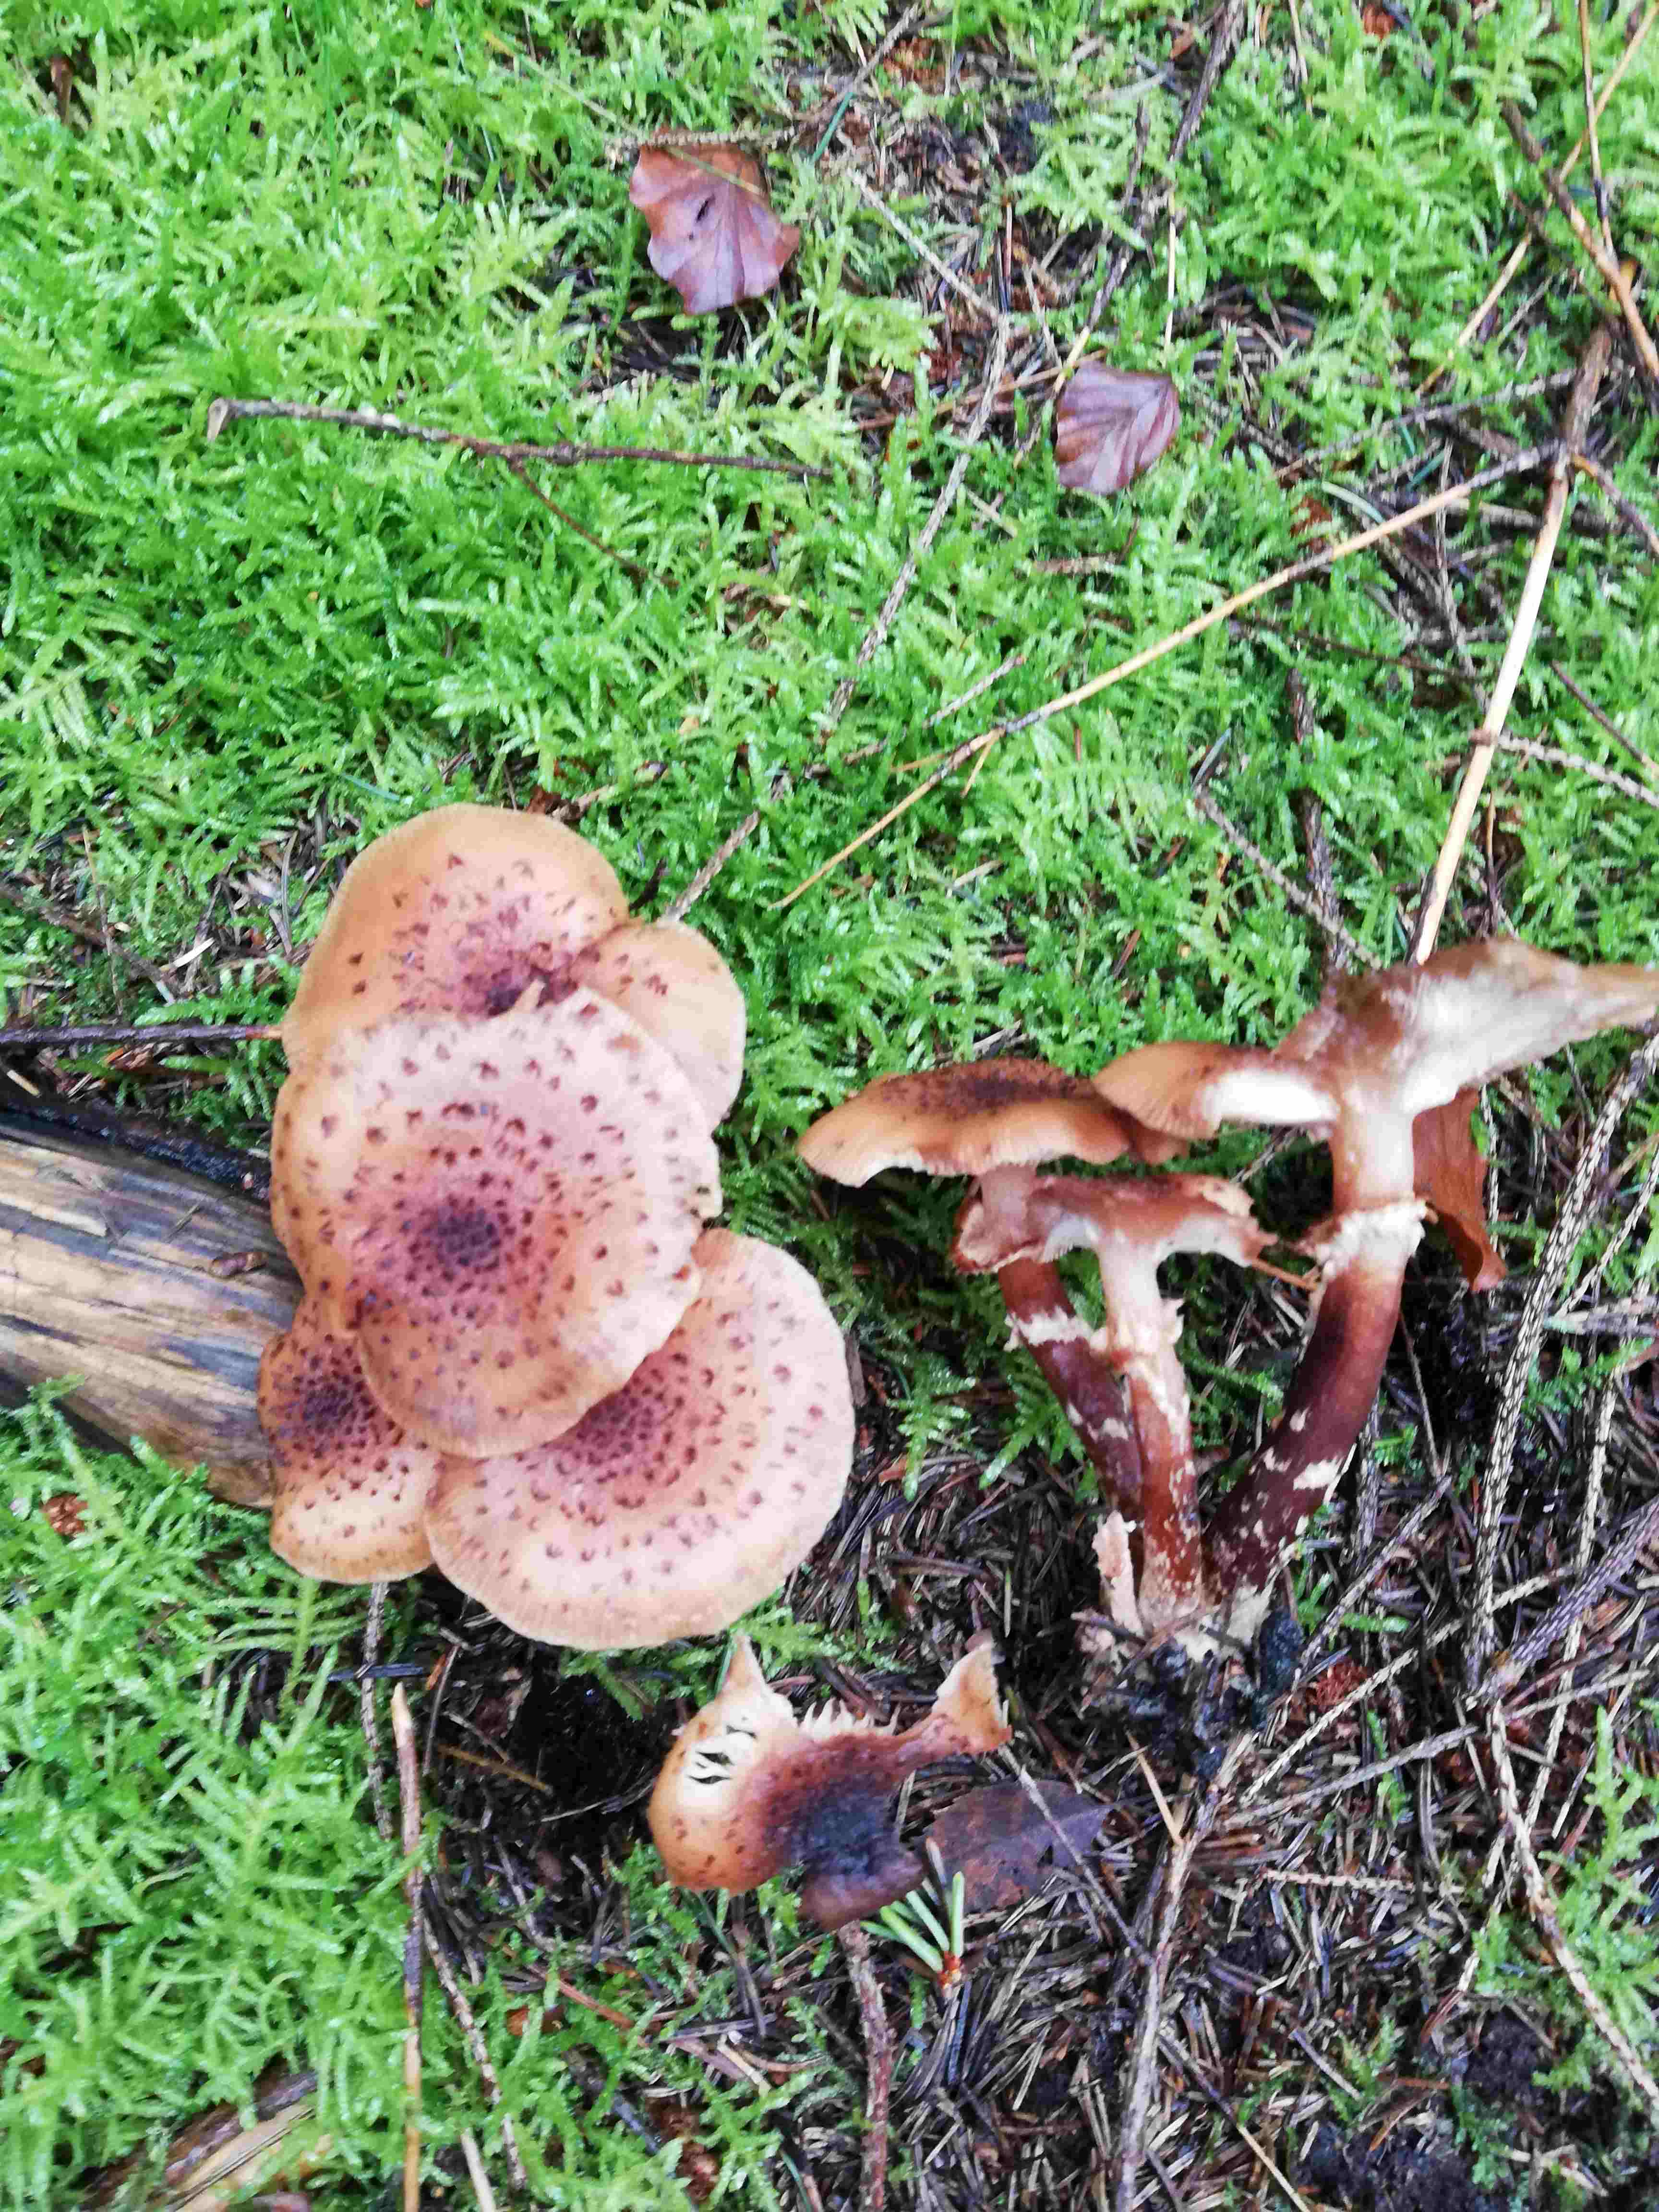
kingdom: Fungi
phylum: Basidiomycota
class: Agaricomycetes
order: Agaricales
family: Physalacriaceae
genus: Armillaria
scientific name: Armillaria ostoyae
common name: mørk honningsvamp
